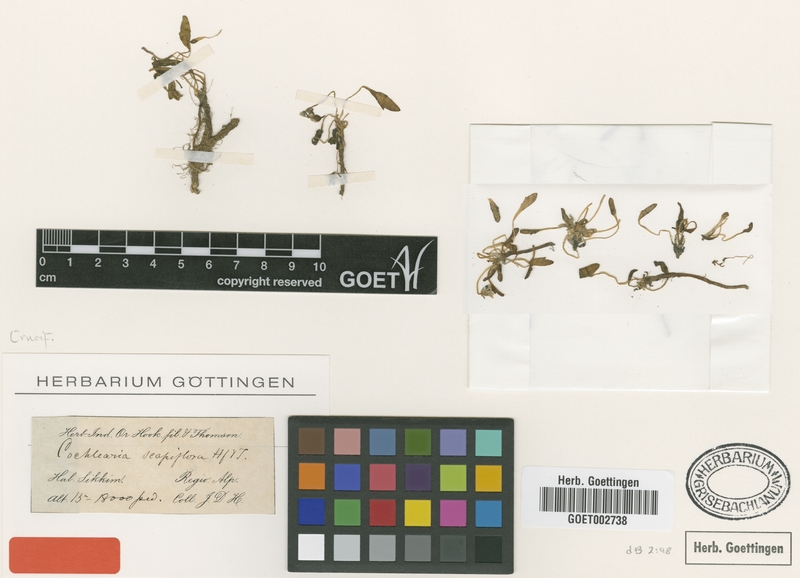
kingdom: Plantae
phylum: Tracheophyta
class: Magnoliopsida
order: Brassicales
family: Brassicaceae
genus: Eutrema
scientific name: Eutrema scapiflorum
